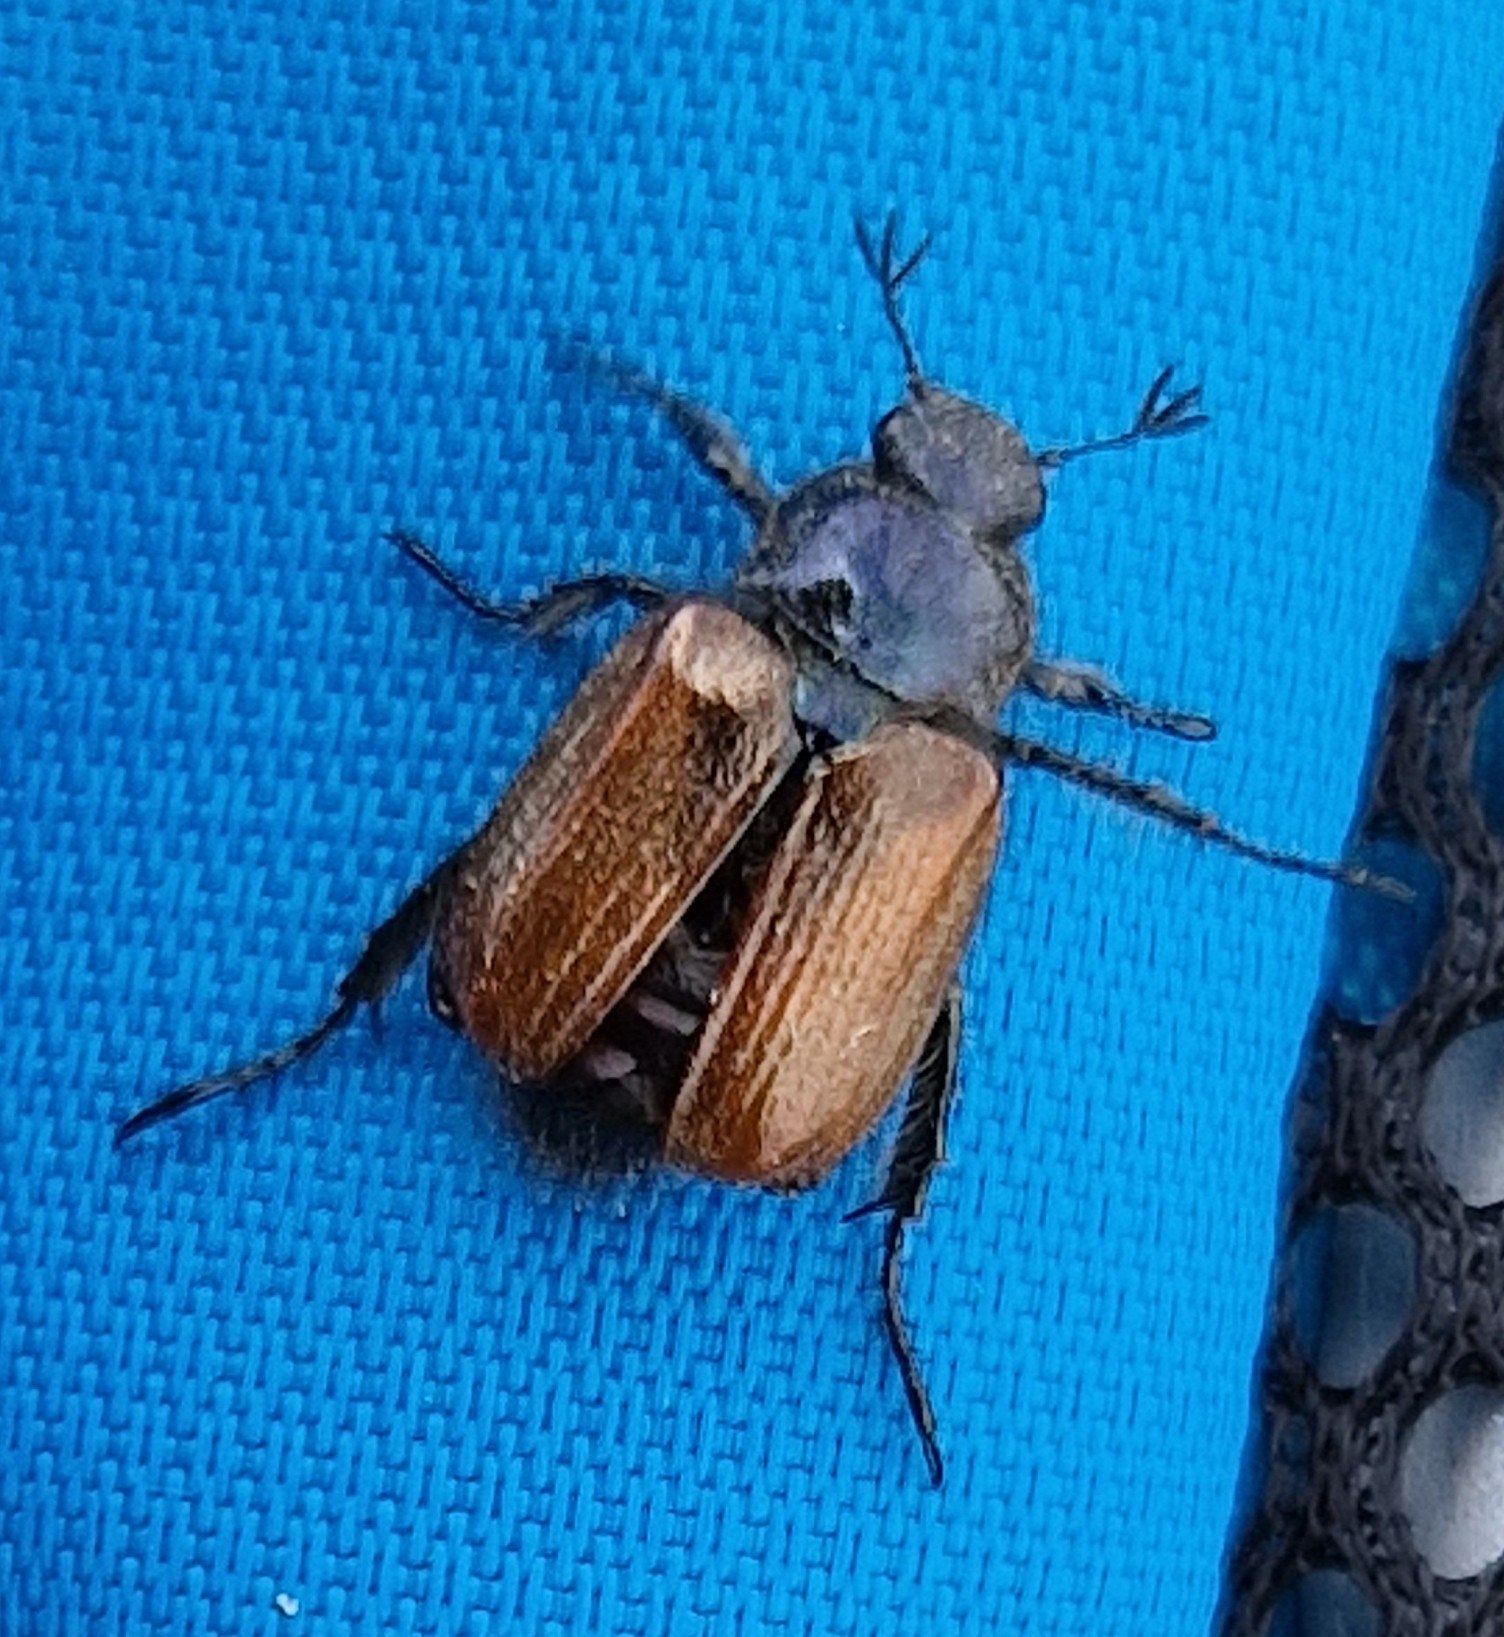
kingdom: Animalia
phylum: Arthropoda
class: Insecta
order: Coleoptera
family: Scarabaeidae
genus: Phyllopertha
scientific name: Phyllopertha horticola
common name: Gåsebille
